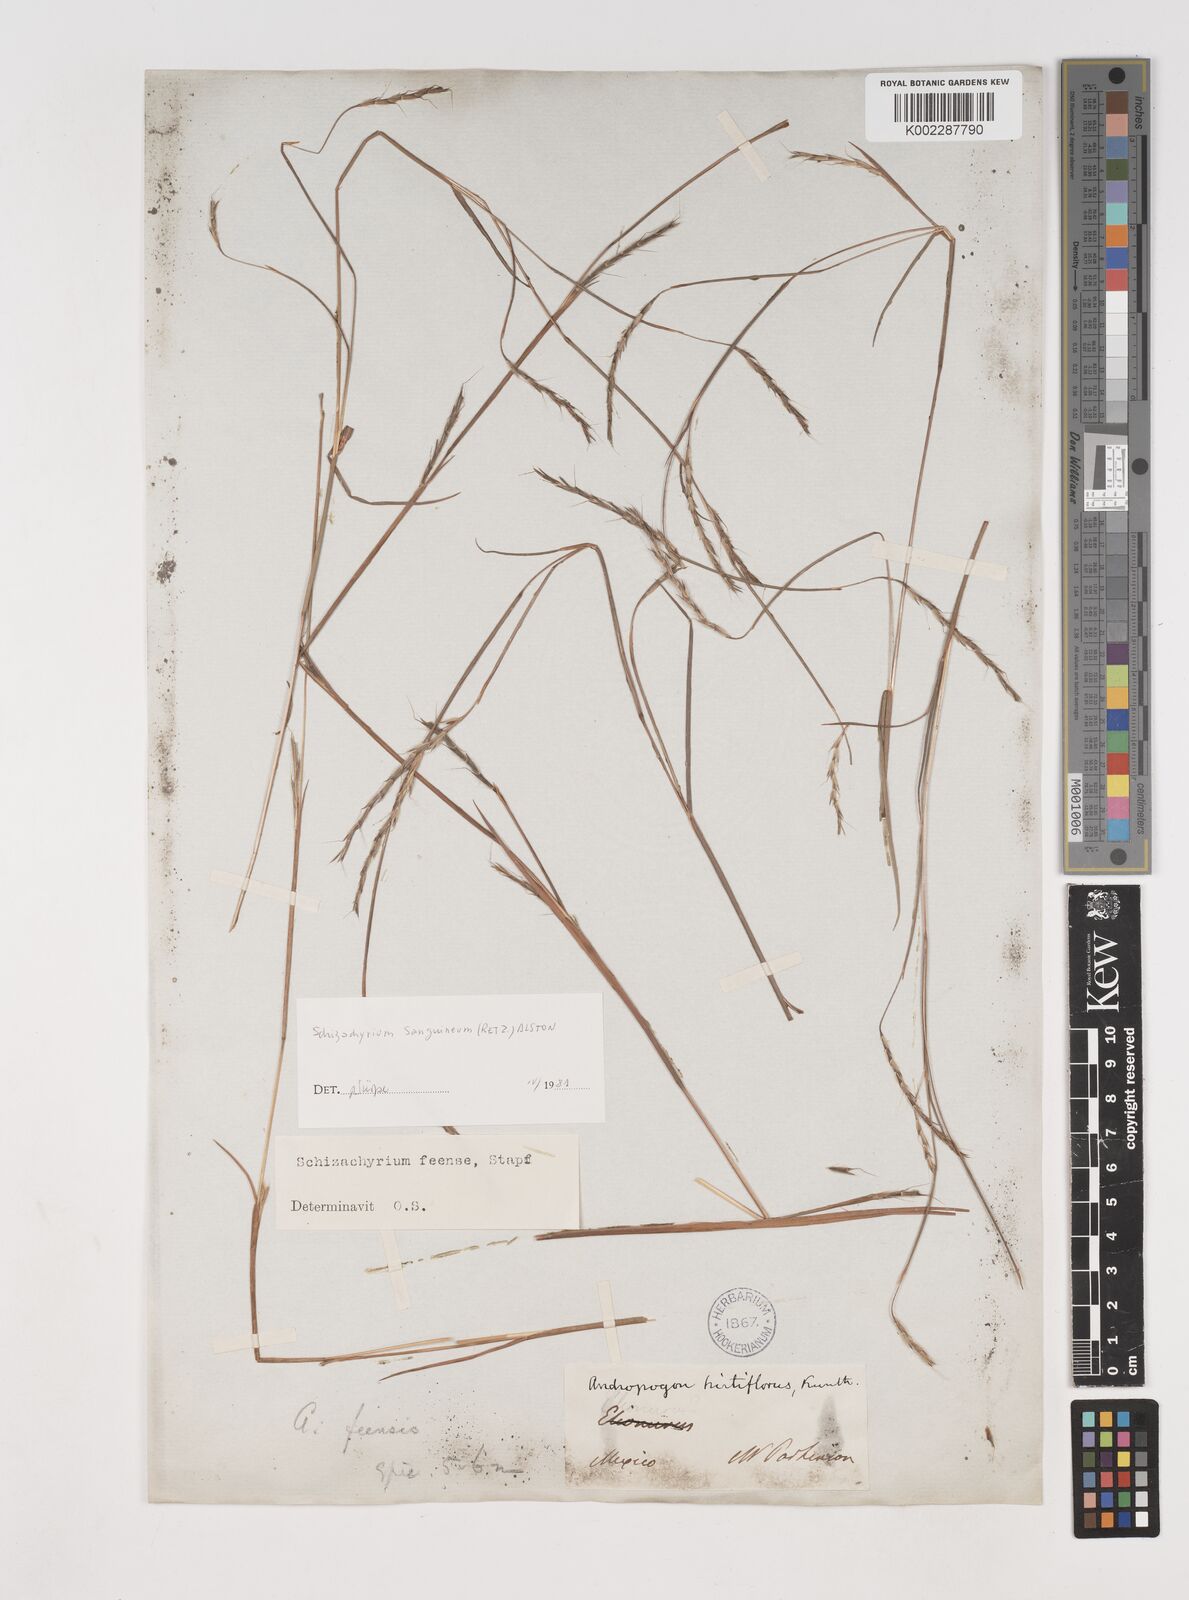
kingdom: Plantae
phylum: Tracheophyta
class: Liliopsida
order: Poales
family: Poaceae
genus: Schizachyrium
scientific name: Schizachyrium sanguineum
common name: Crimson bluestem
